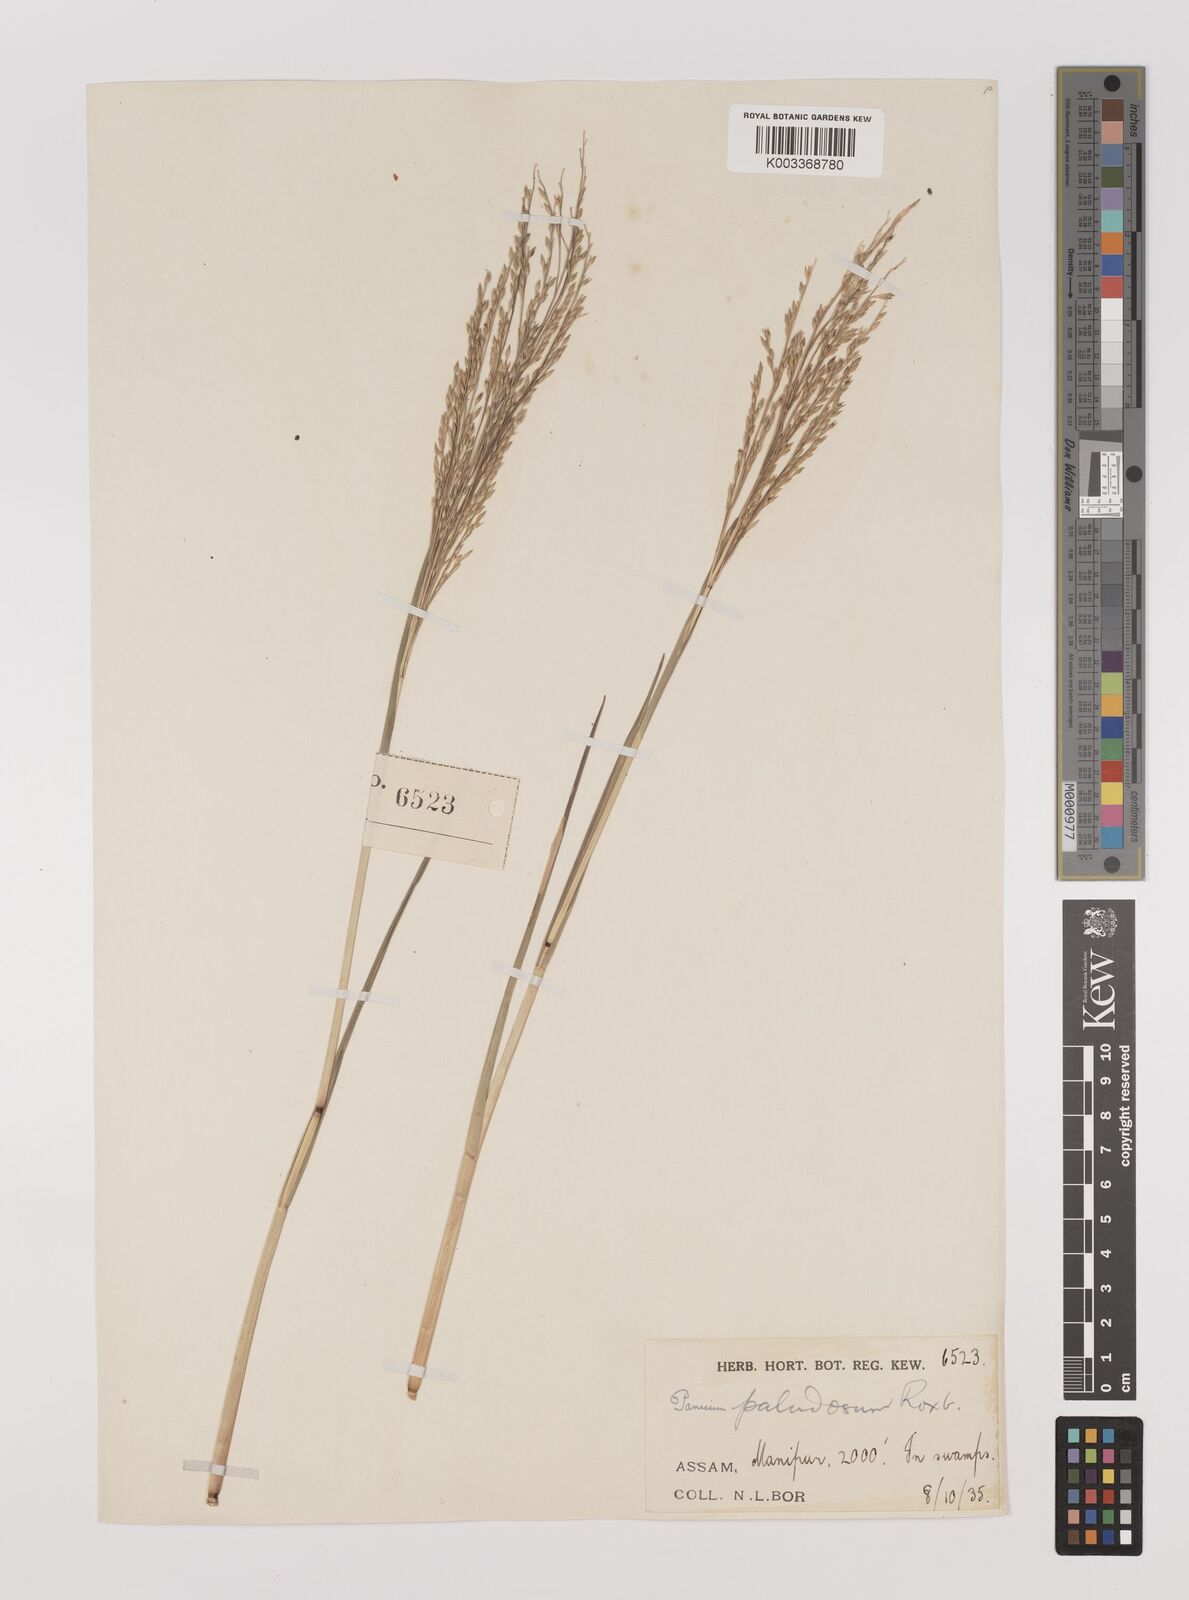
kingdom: Plantae
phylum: Tracheophyta
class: Liliopsida
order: Poales
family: Poaceae
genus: Louisiella
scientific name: Louisiella paludosa
